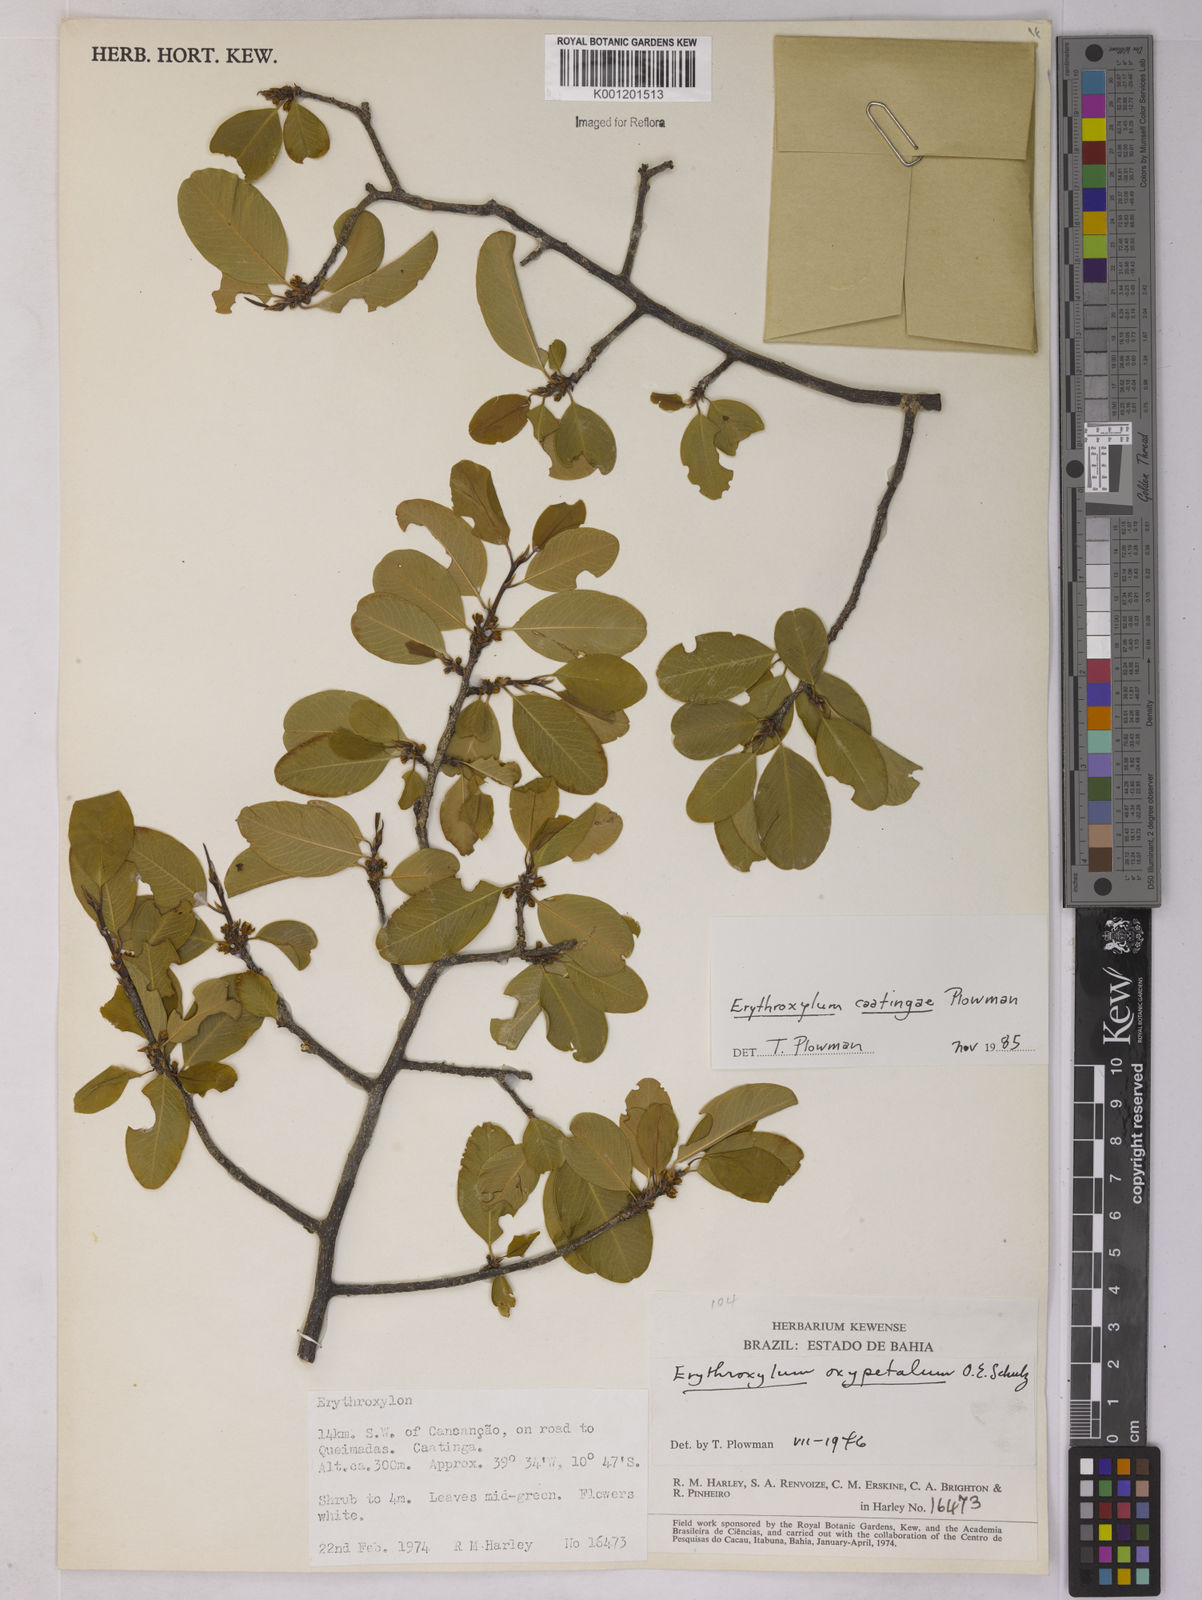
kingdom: Plantae
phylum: Tracheophyta
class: Magnoliopsida
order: Malpighiales
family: Erythroxylaceae
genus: Erythroxylum
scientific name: Erythroxylum caatingae
